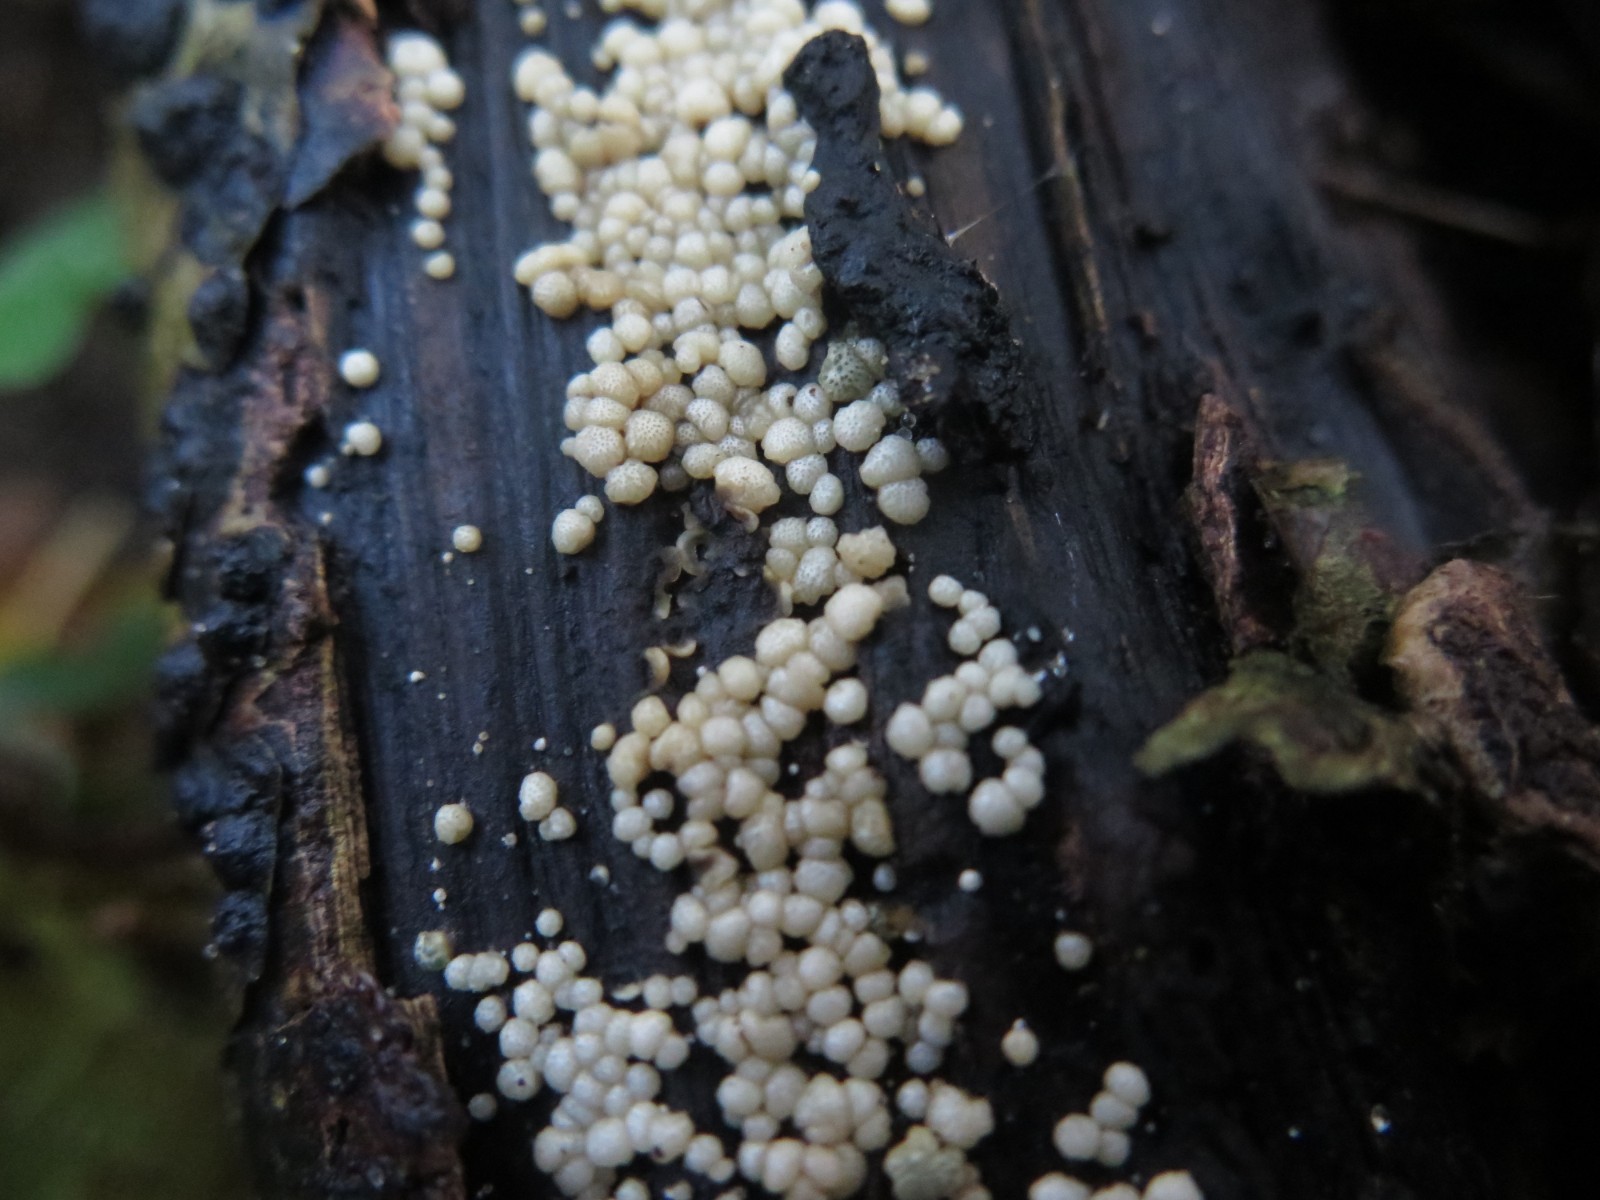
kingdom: Fungi
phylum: Ascomycota
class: Sordariomycetes
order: Hypocreales
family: Hypocreaceae
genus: Trichoderma
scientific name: Trichoderma strictipile
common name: grønprikket kødkerne
